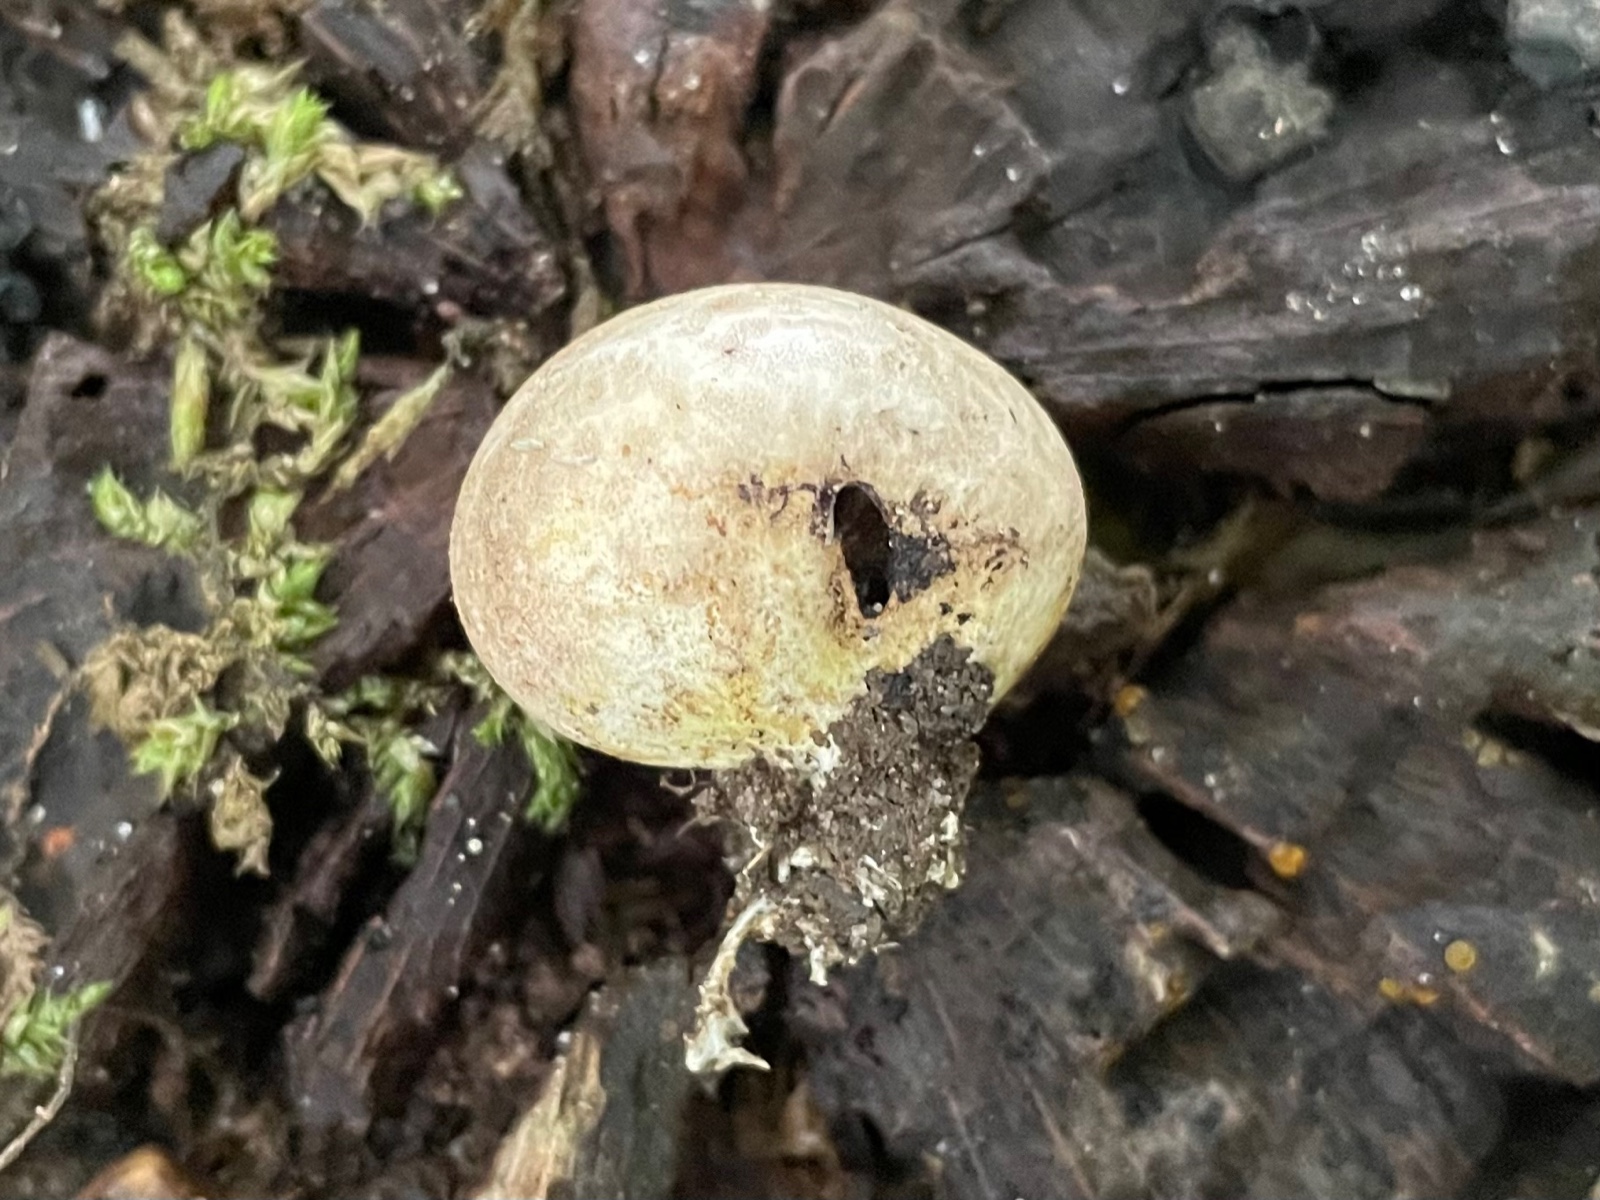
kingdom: Fungi
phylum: Basidiomycota
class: Agaricomycetes
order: Boletales
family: Sclerodermataceae
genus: Scleroderma
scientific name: Scleroderma
